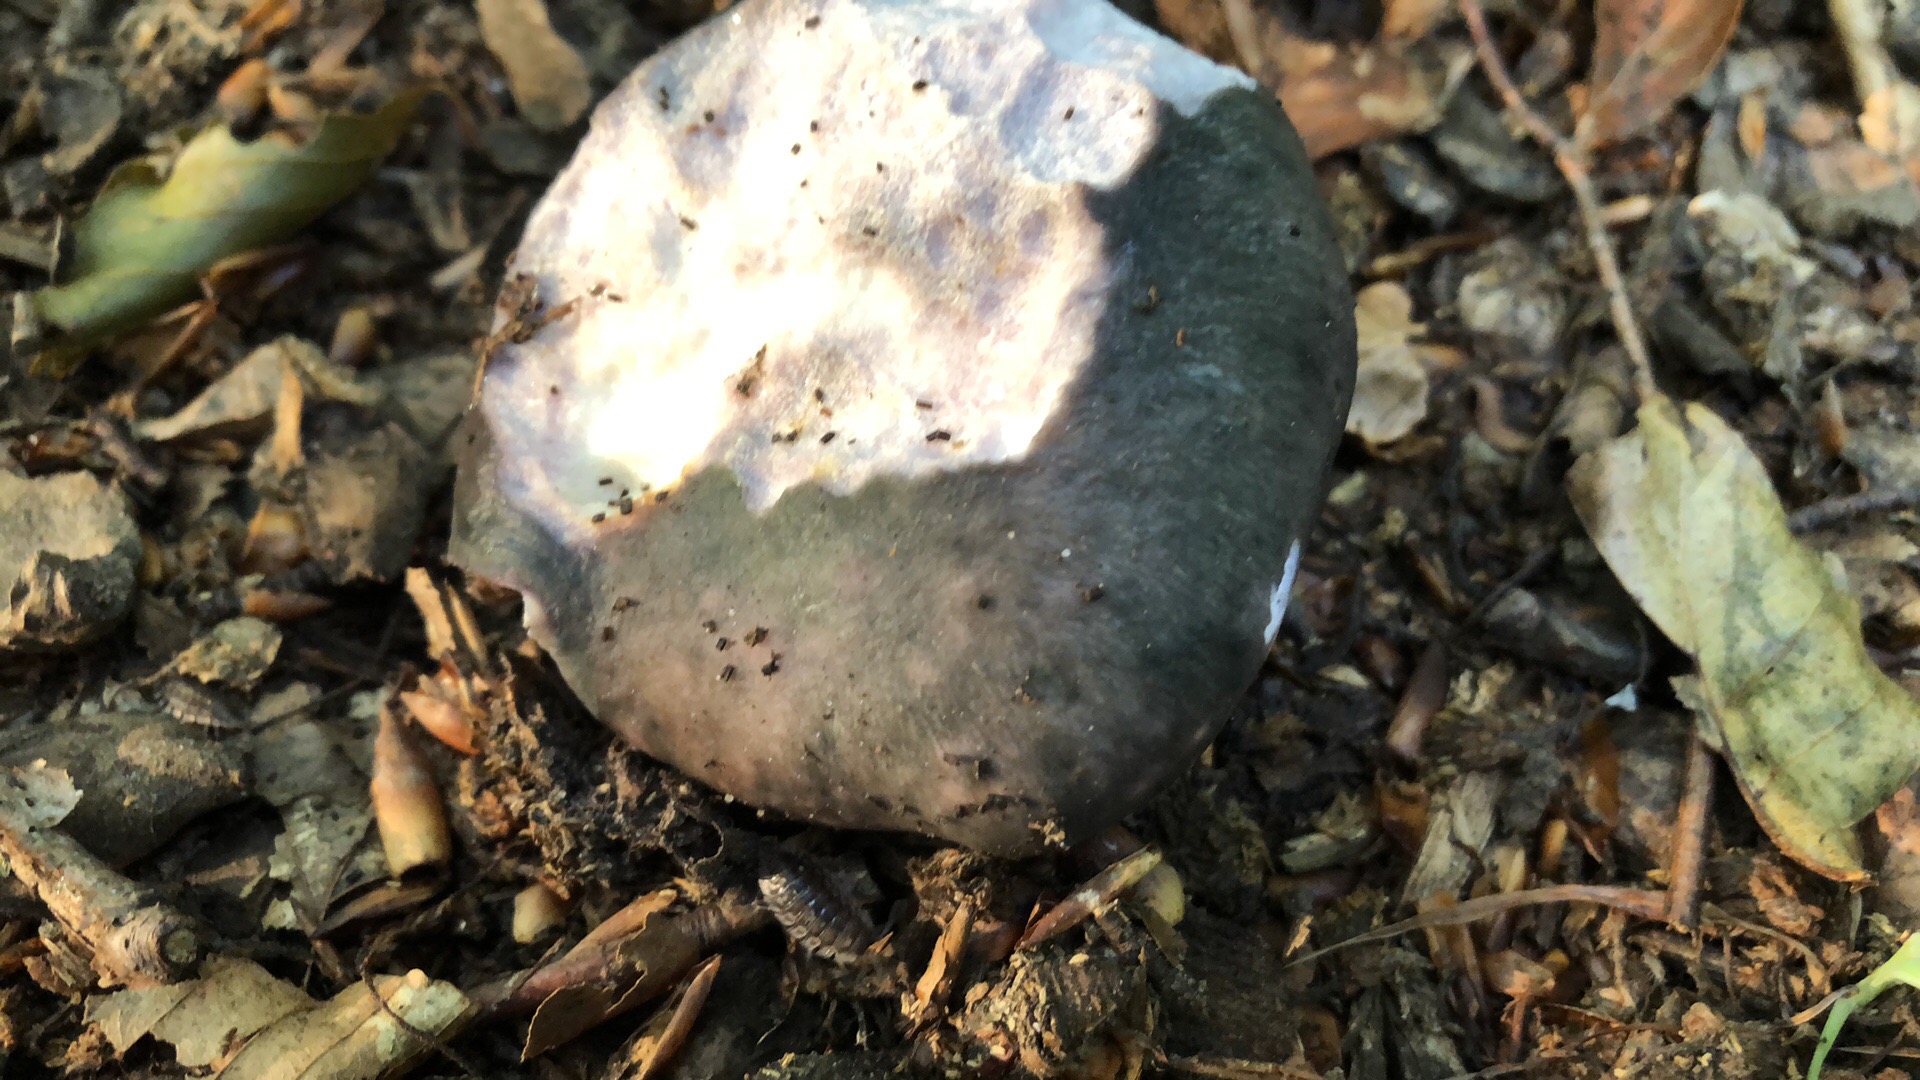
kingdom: Fungi
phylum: Basidiomycota
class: Agaricomycetes
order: Russulales
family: Russulaceae
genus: Russula
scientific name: Russula cyanoxantha
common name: broget skørhat
